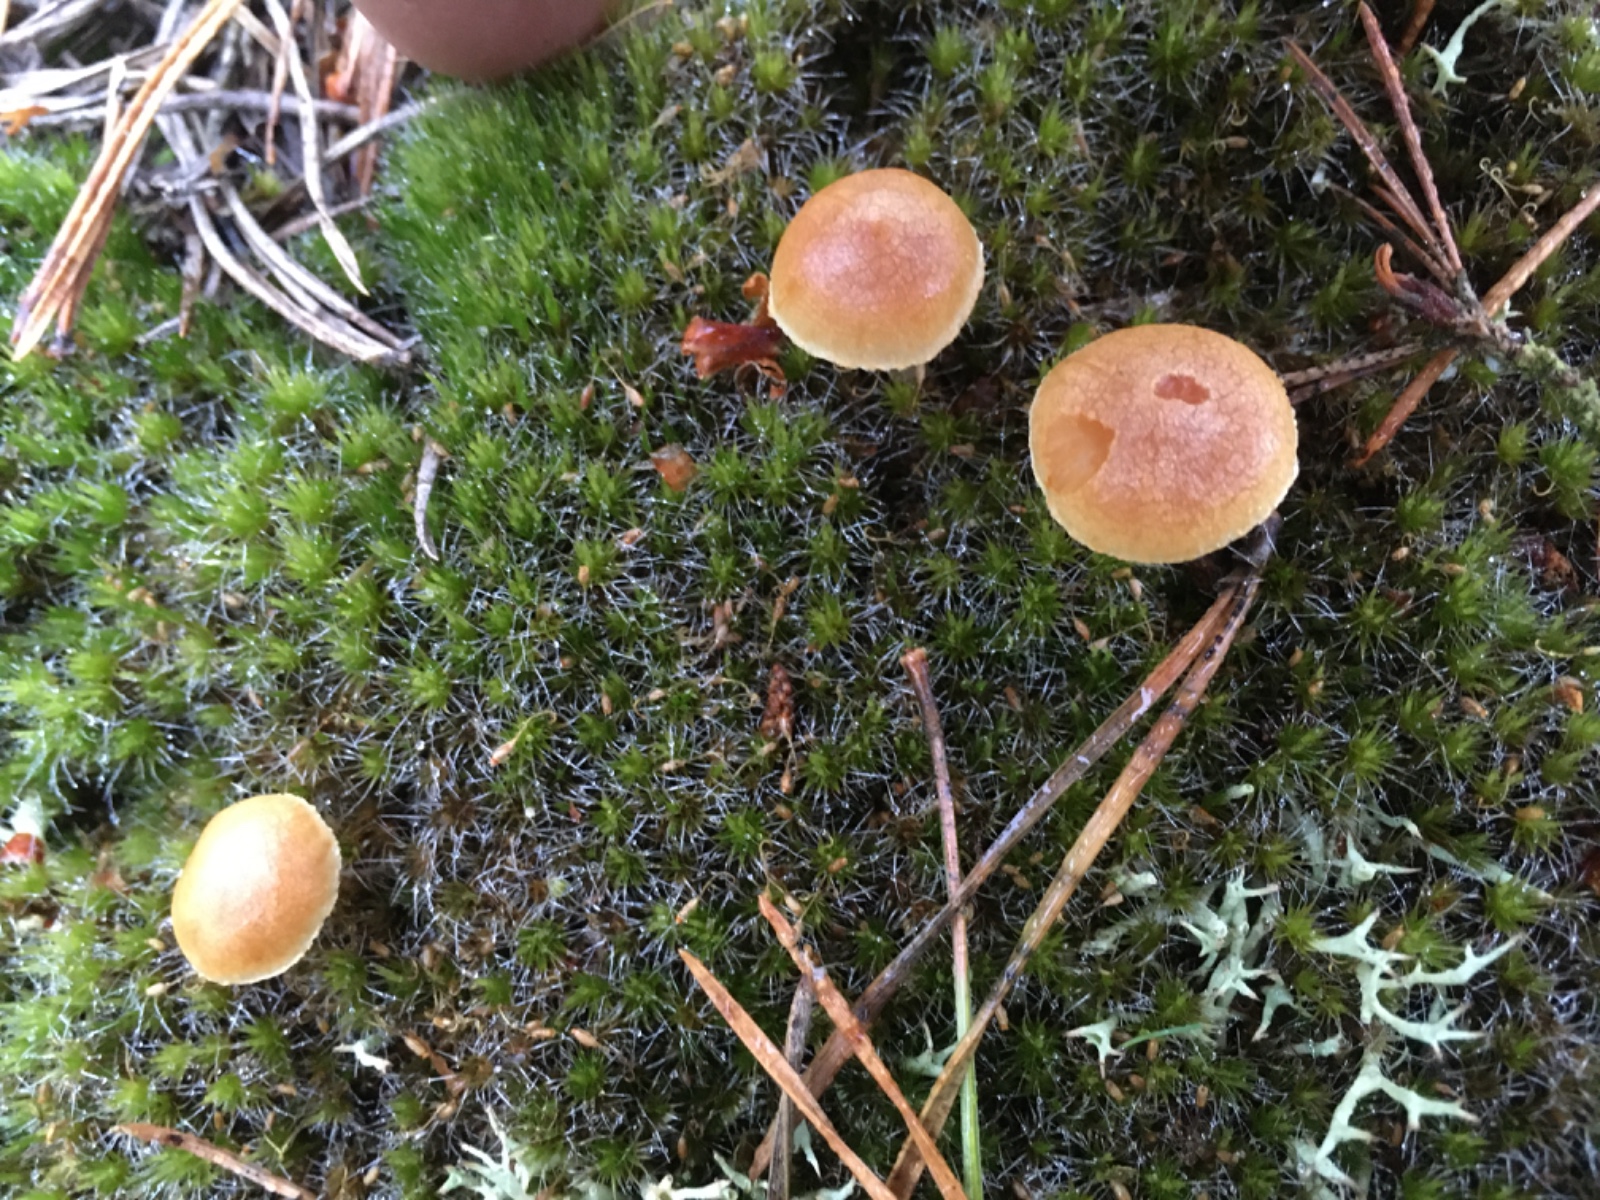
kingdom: Fungi
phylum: Basidiomycota
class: Agaricomycetes
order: Agaricales
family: Hymenogastraceae
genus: Gymnopilus
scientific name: Gymnopilus penetrans
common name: plettet flammehat
